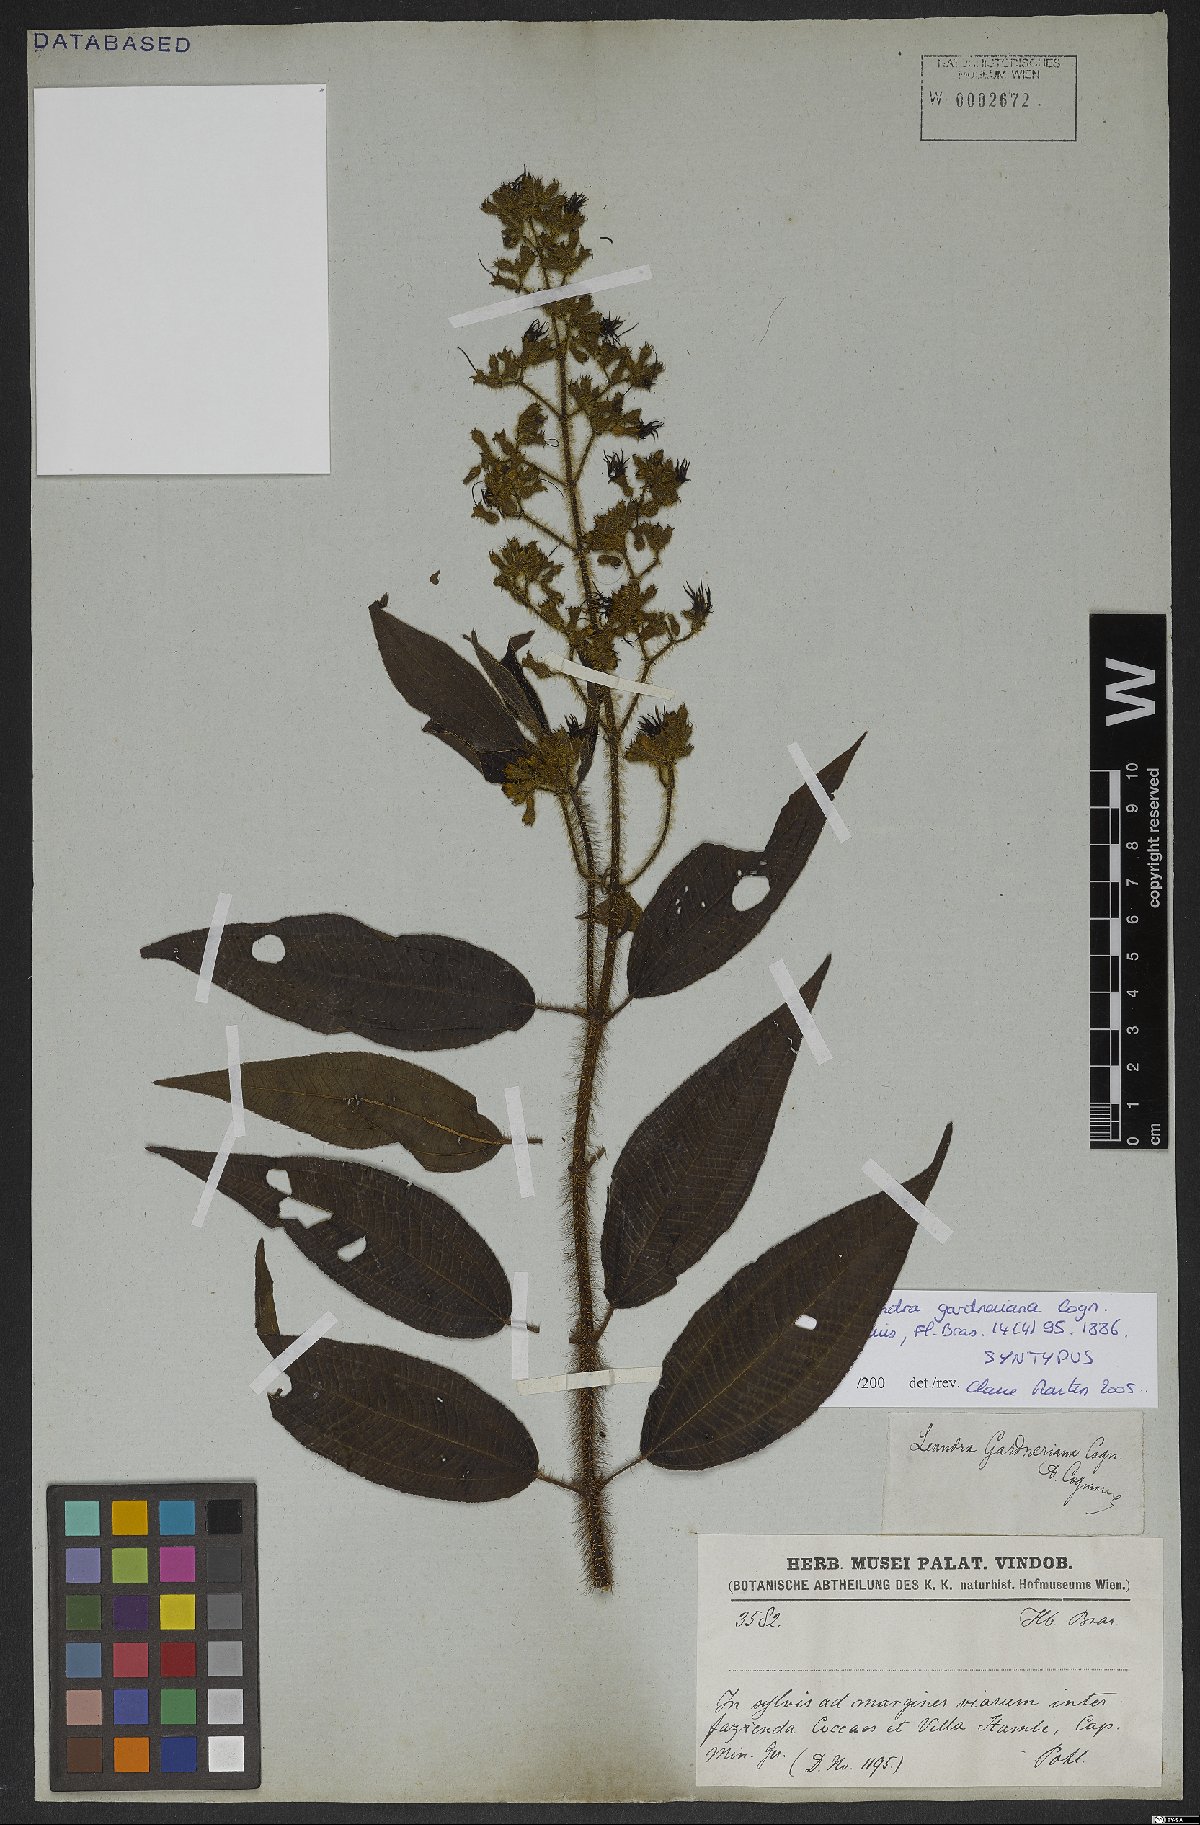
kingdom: Plantae
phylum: Tracheophyta
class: Magnoliopsida
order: Myrtales
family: Melastomataceae
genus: Miconia
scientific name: Miconia xantholasia
